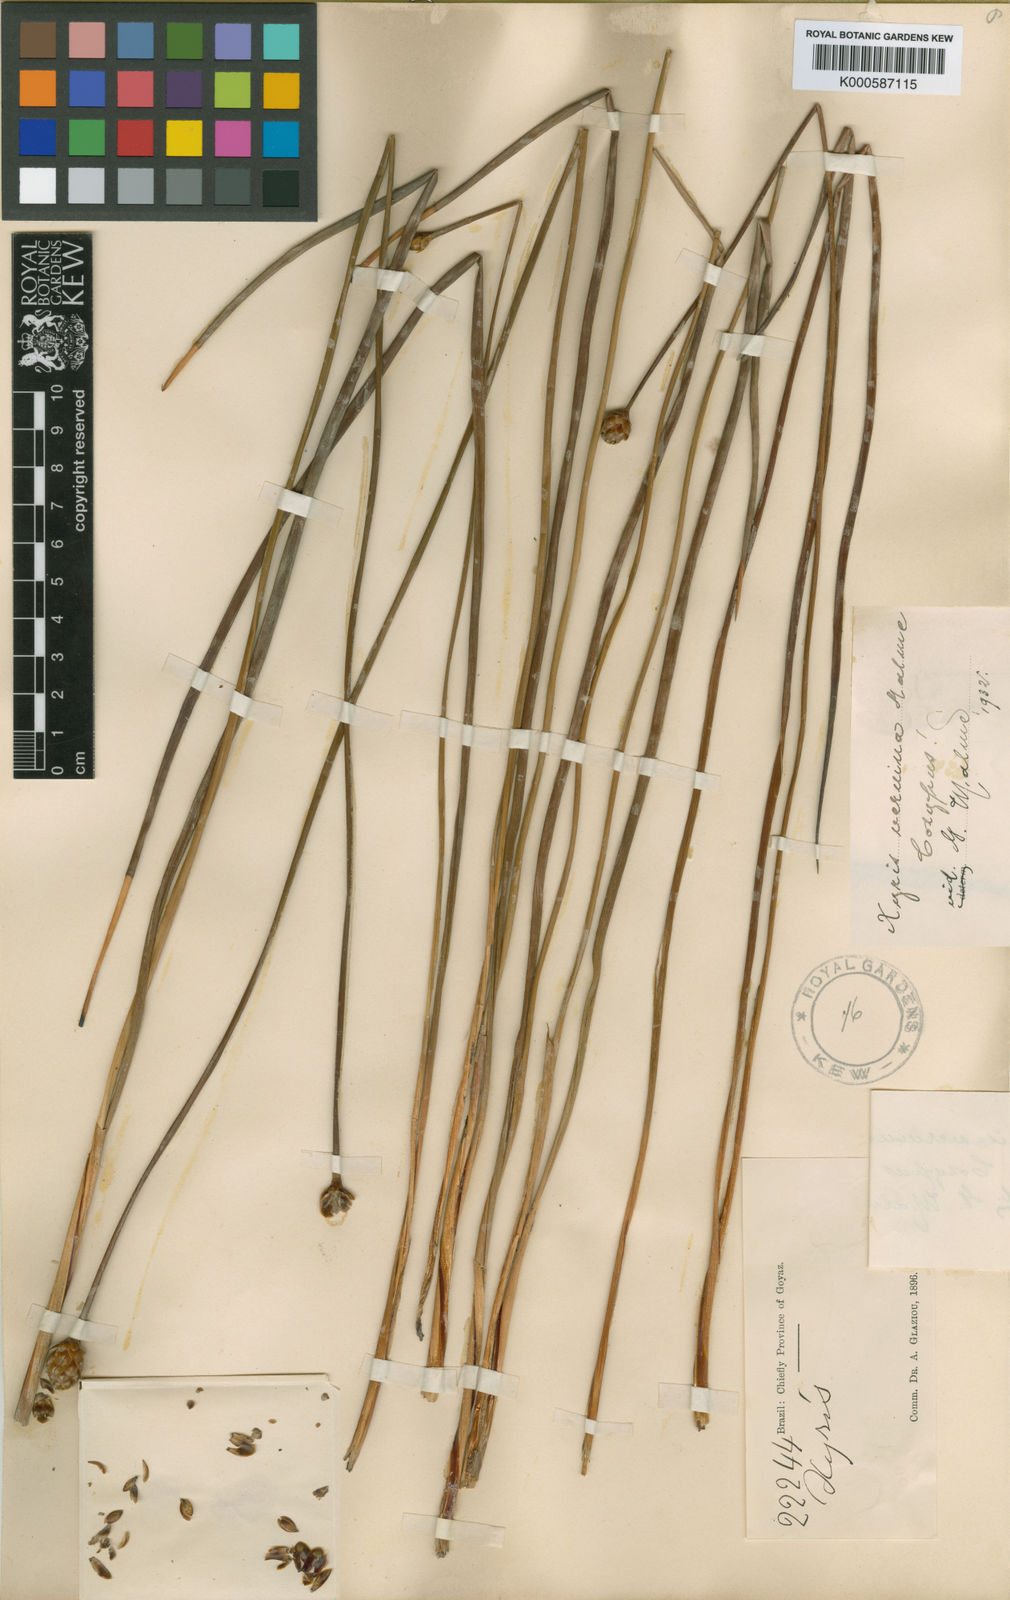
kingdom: Plantae
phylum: Tracheophyta
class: Liliopsida
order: Poales
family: Xyridaceae
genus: Xyris
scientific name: Xyris veruina
